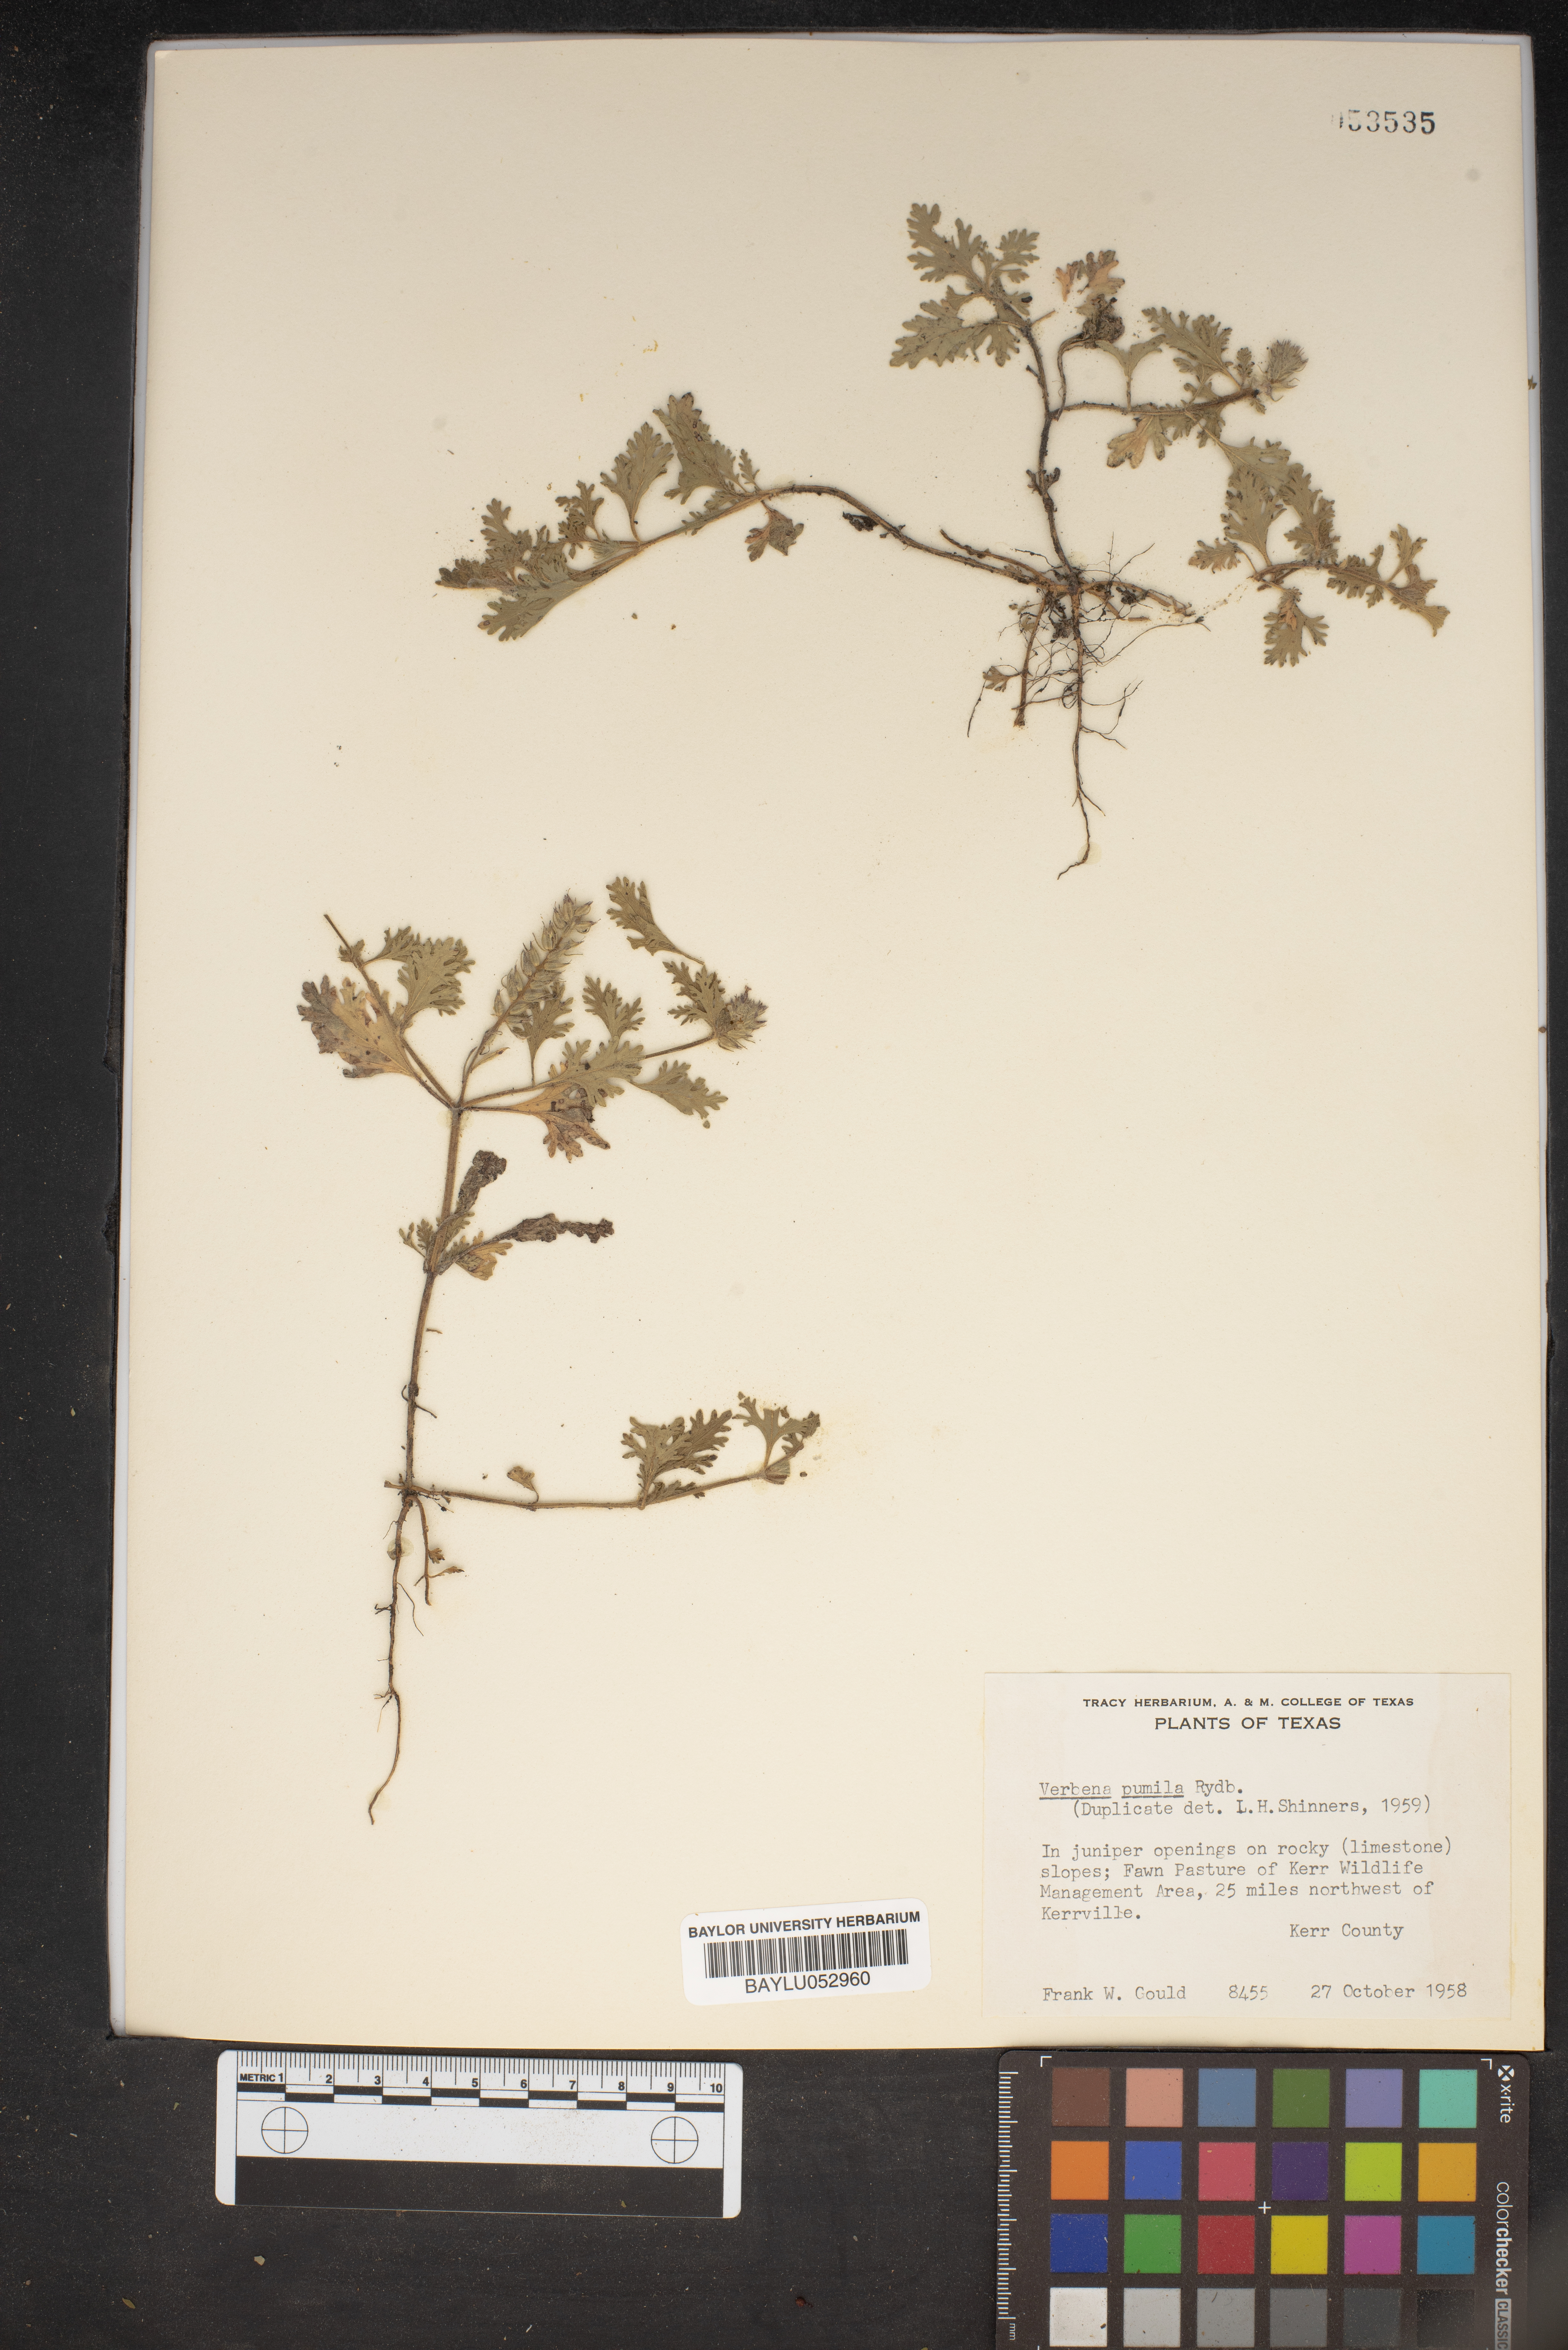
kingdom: Plantae
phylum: Tracheophyta
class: Magnoliopsida
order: Lamiales
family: Verbenaceae
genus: Verbena
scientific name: Verbena pumila
